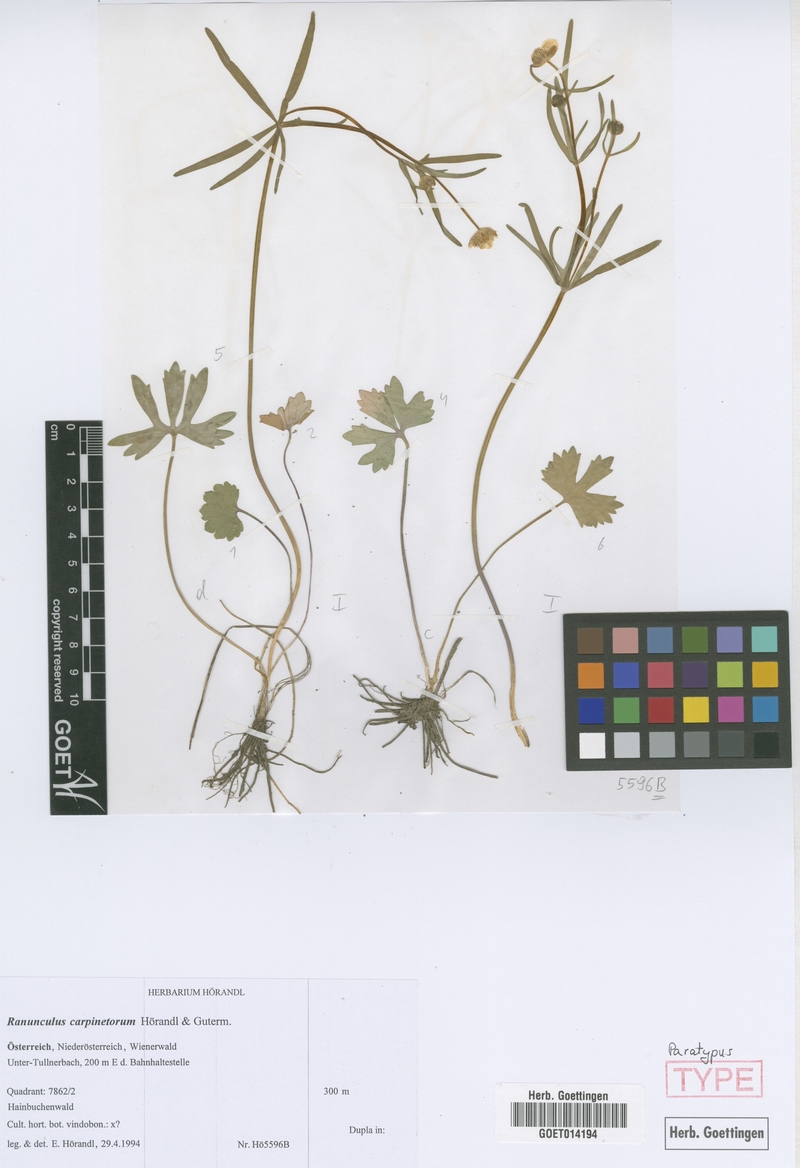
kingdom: Plantae
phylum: Tracheophyta
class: Magnoliopsida
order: Ranunculales
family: Ranunculaceae
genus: Ranunculus
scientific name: Ranunculus carpinetorum
